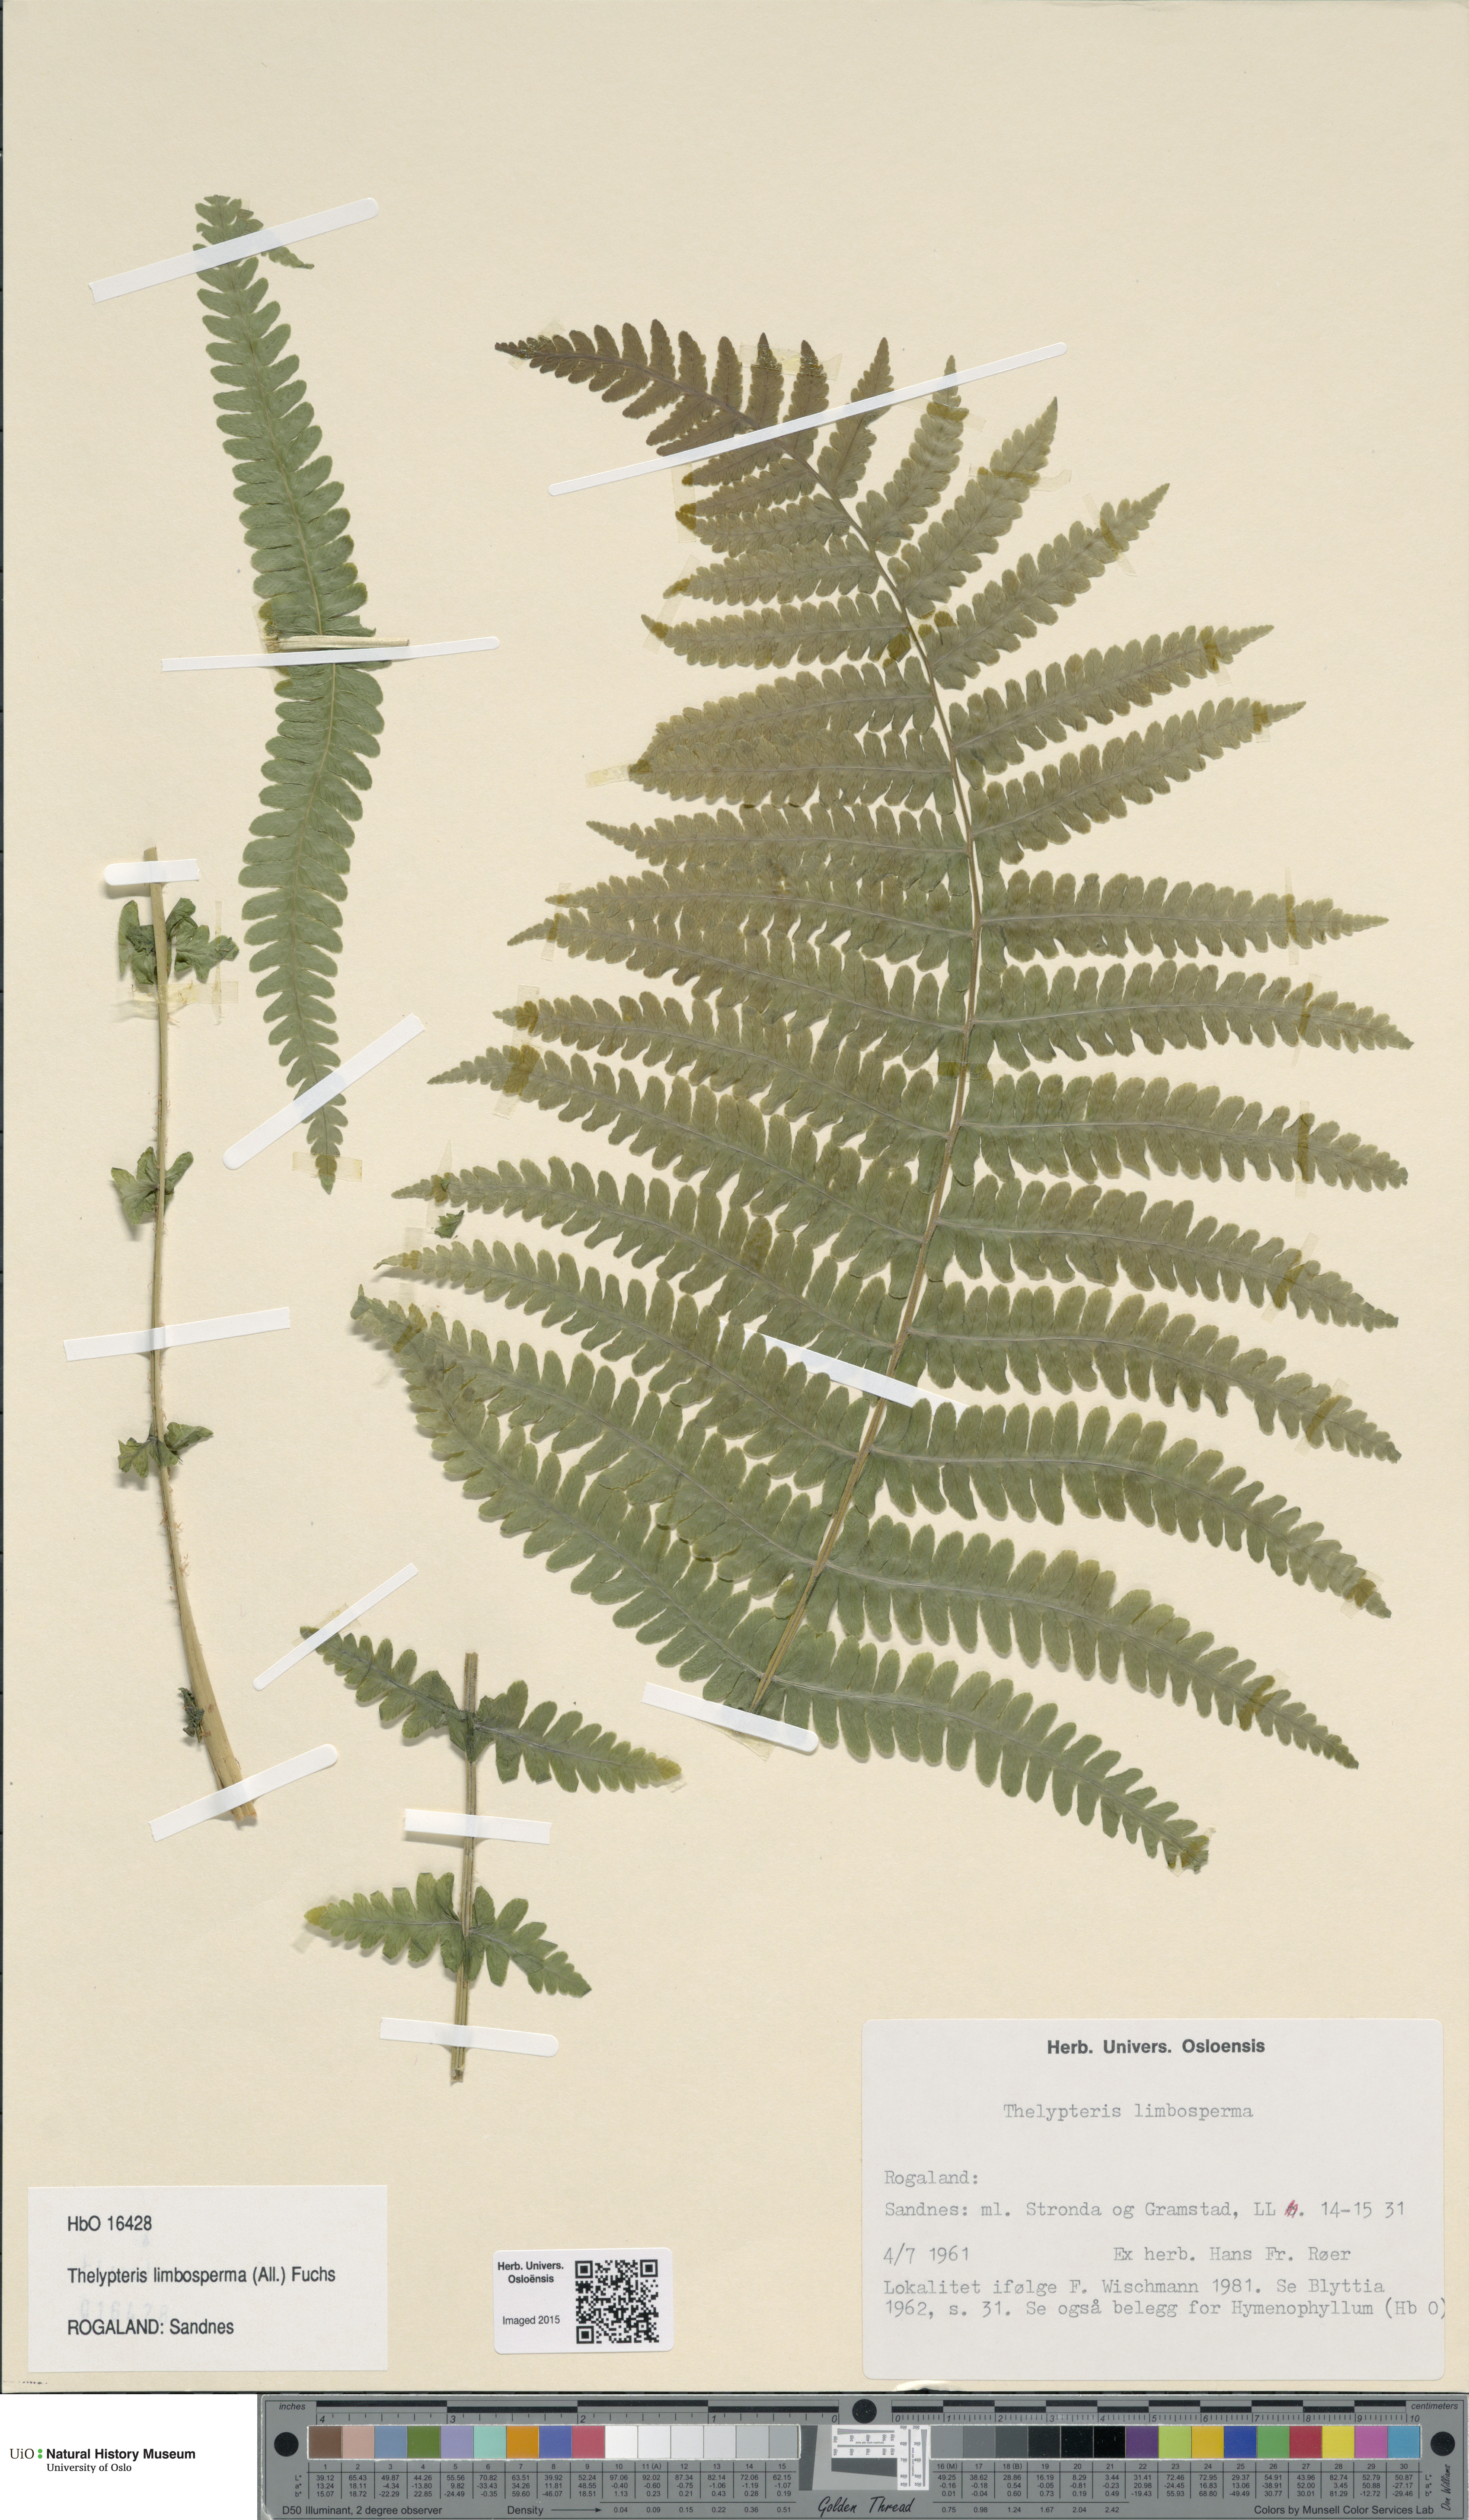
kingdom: Plantae
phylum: Tracheophyta
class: Polypodiopsida
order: Polypodiales
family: Thelypteridaceae
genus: Oreopteris
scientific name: Oreopteris limbosperma
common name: Lemon-scented fern
